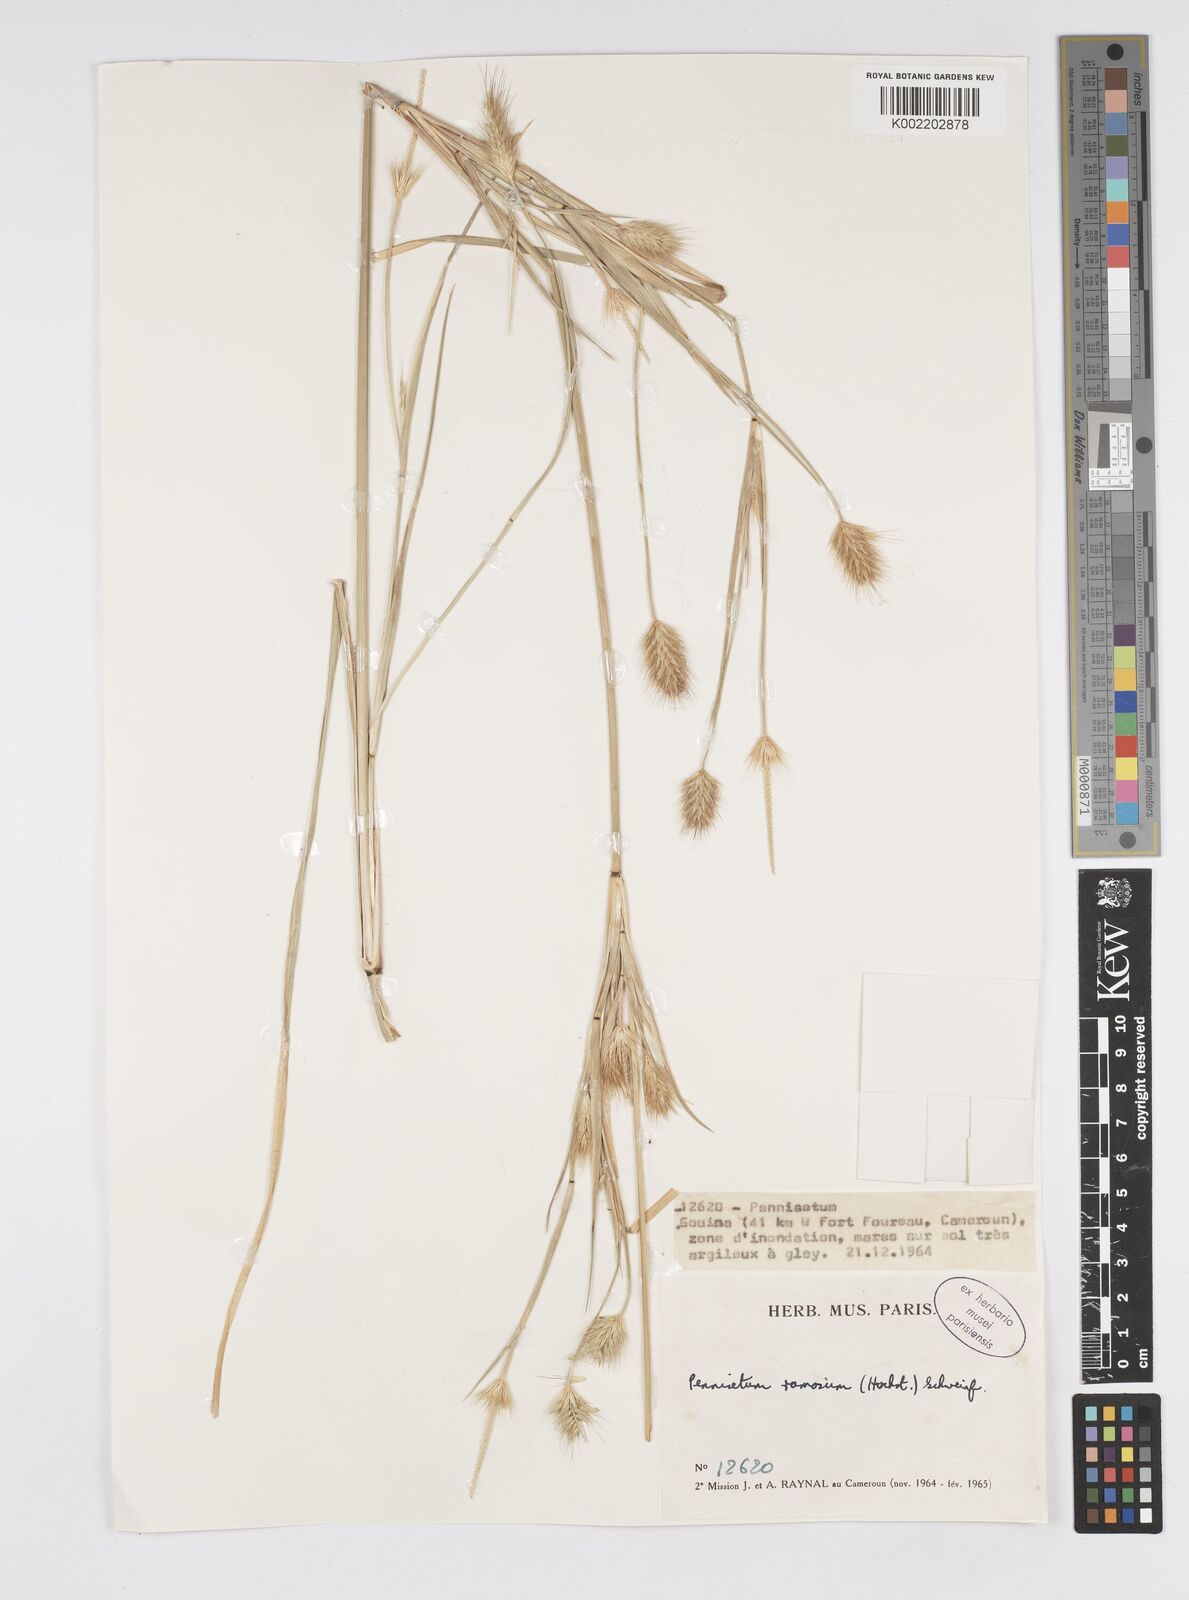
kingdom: Plantae
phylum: Tracheophyta
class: Liliopsida
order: Poales
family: Poaceae
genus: Cenchrus
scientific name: Cenchrus setosus
